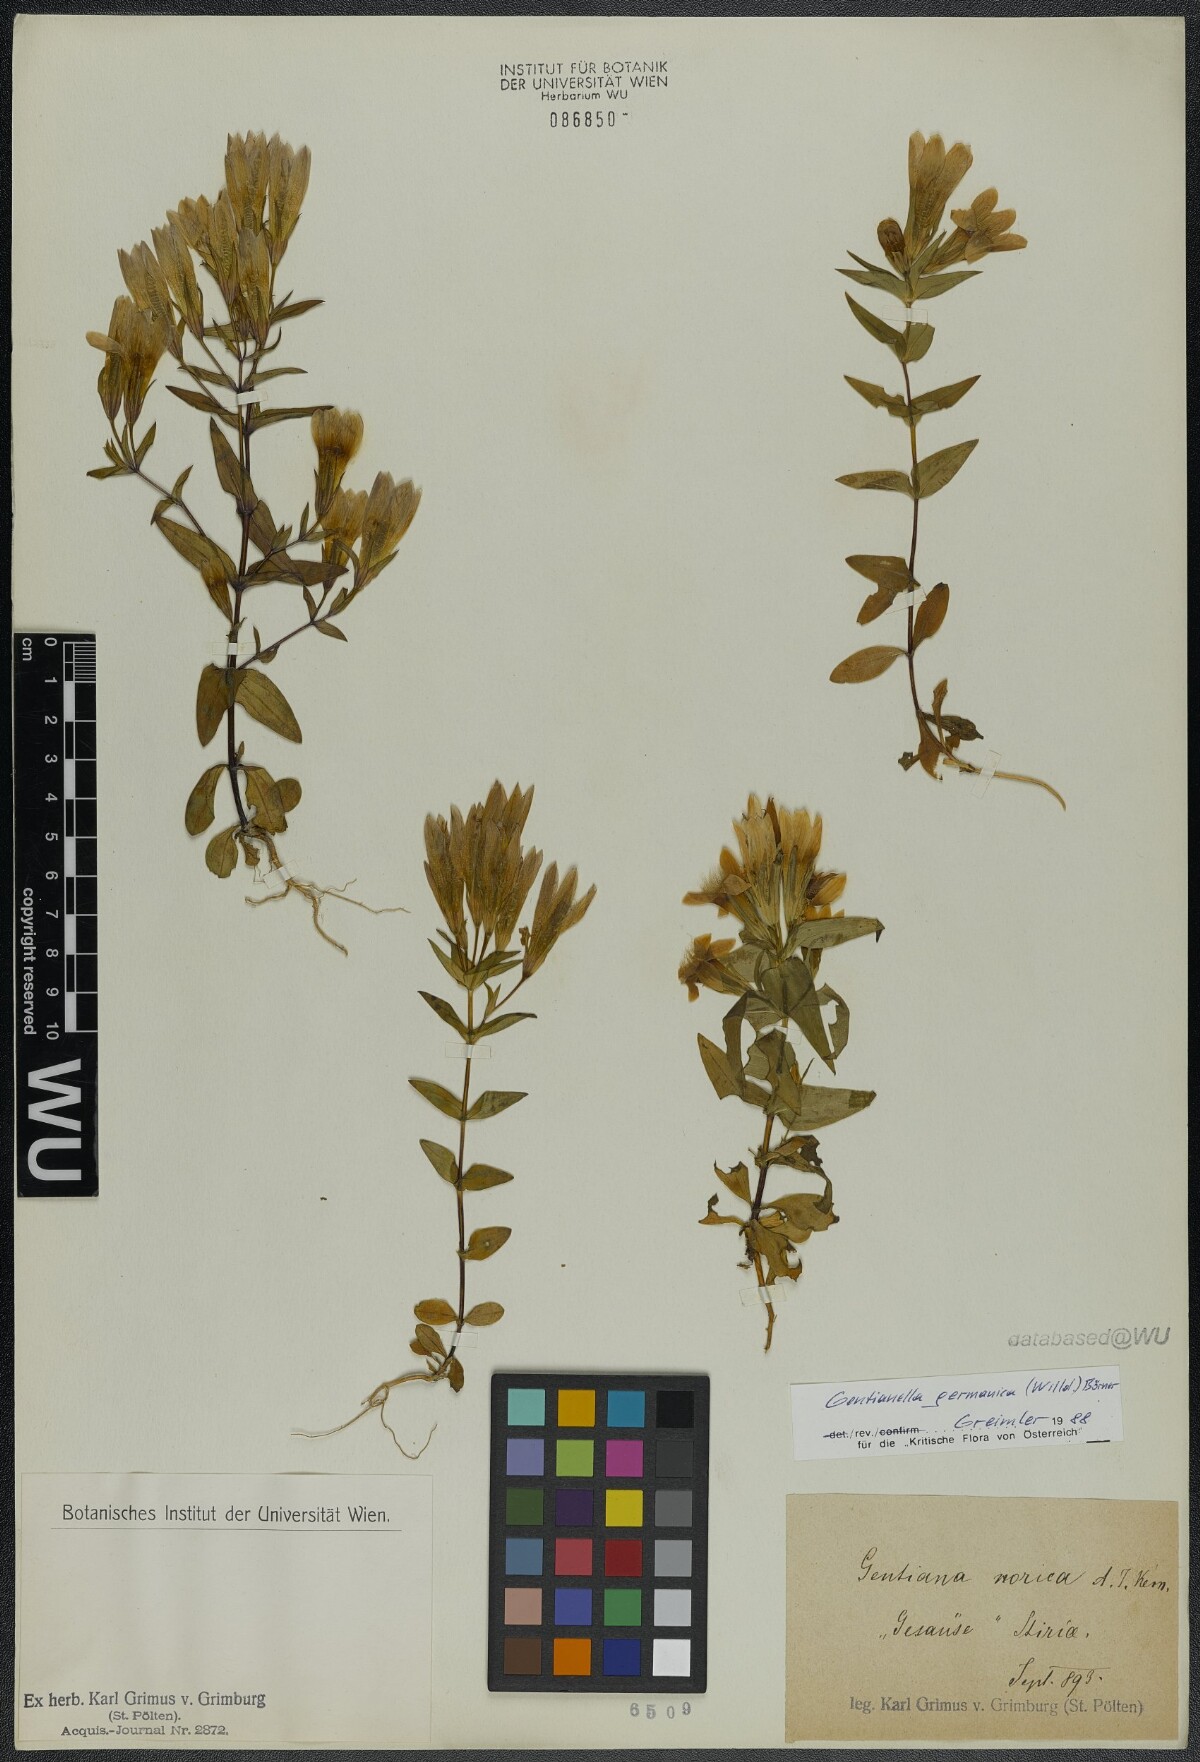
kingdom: Plantae
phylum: Tracheophyta
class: Magnoliopsida
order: Gentianales
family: Gentianaceae
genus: Gentianella
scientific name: Gentianella germanica
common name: Chiltern-gentian
